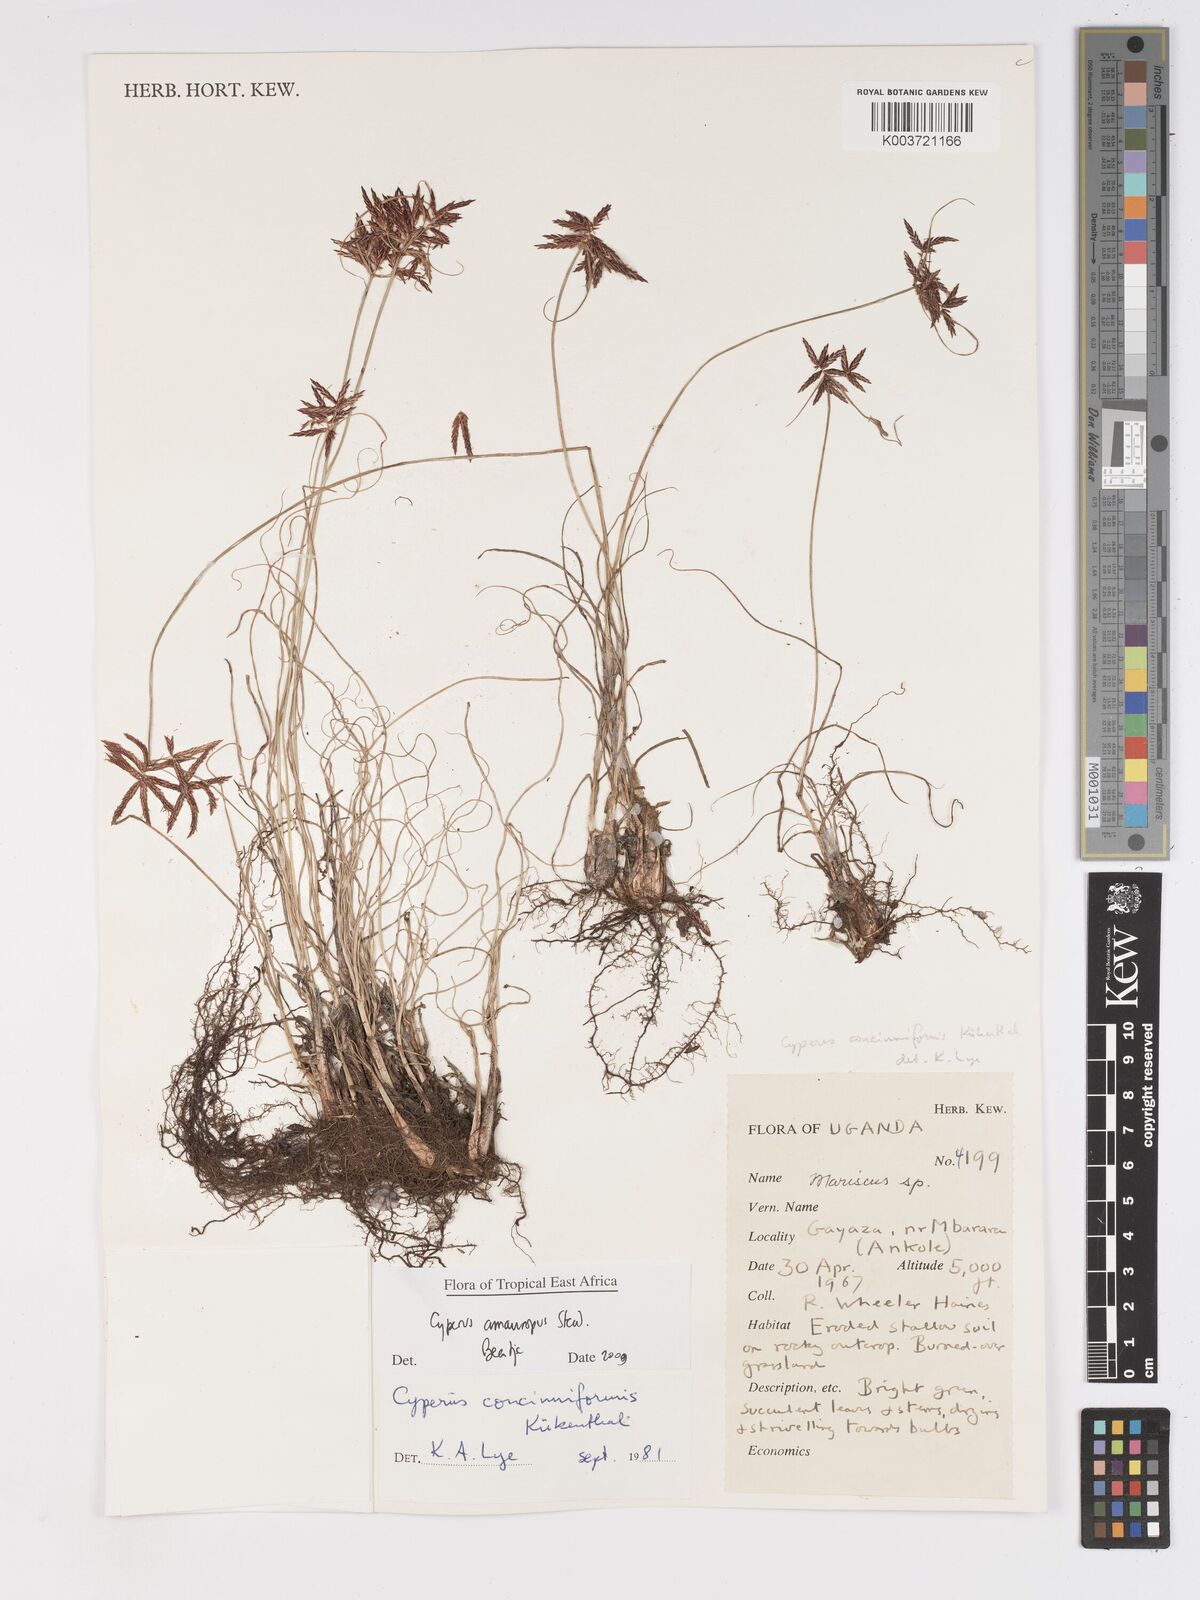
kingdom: Plantae
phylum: Tracheophyta
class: Liliopsida
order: Poales
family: Cyperaceae
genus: Cyperus
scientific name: Cyperus amauropus
